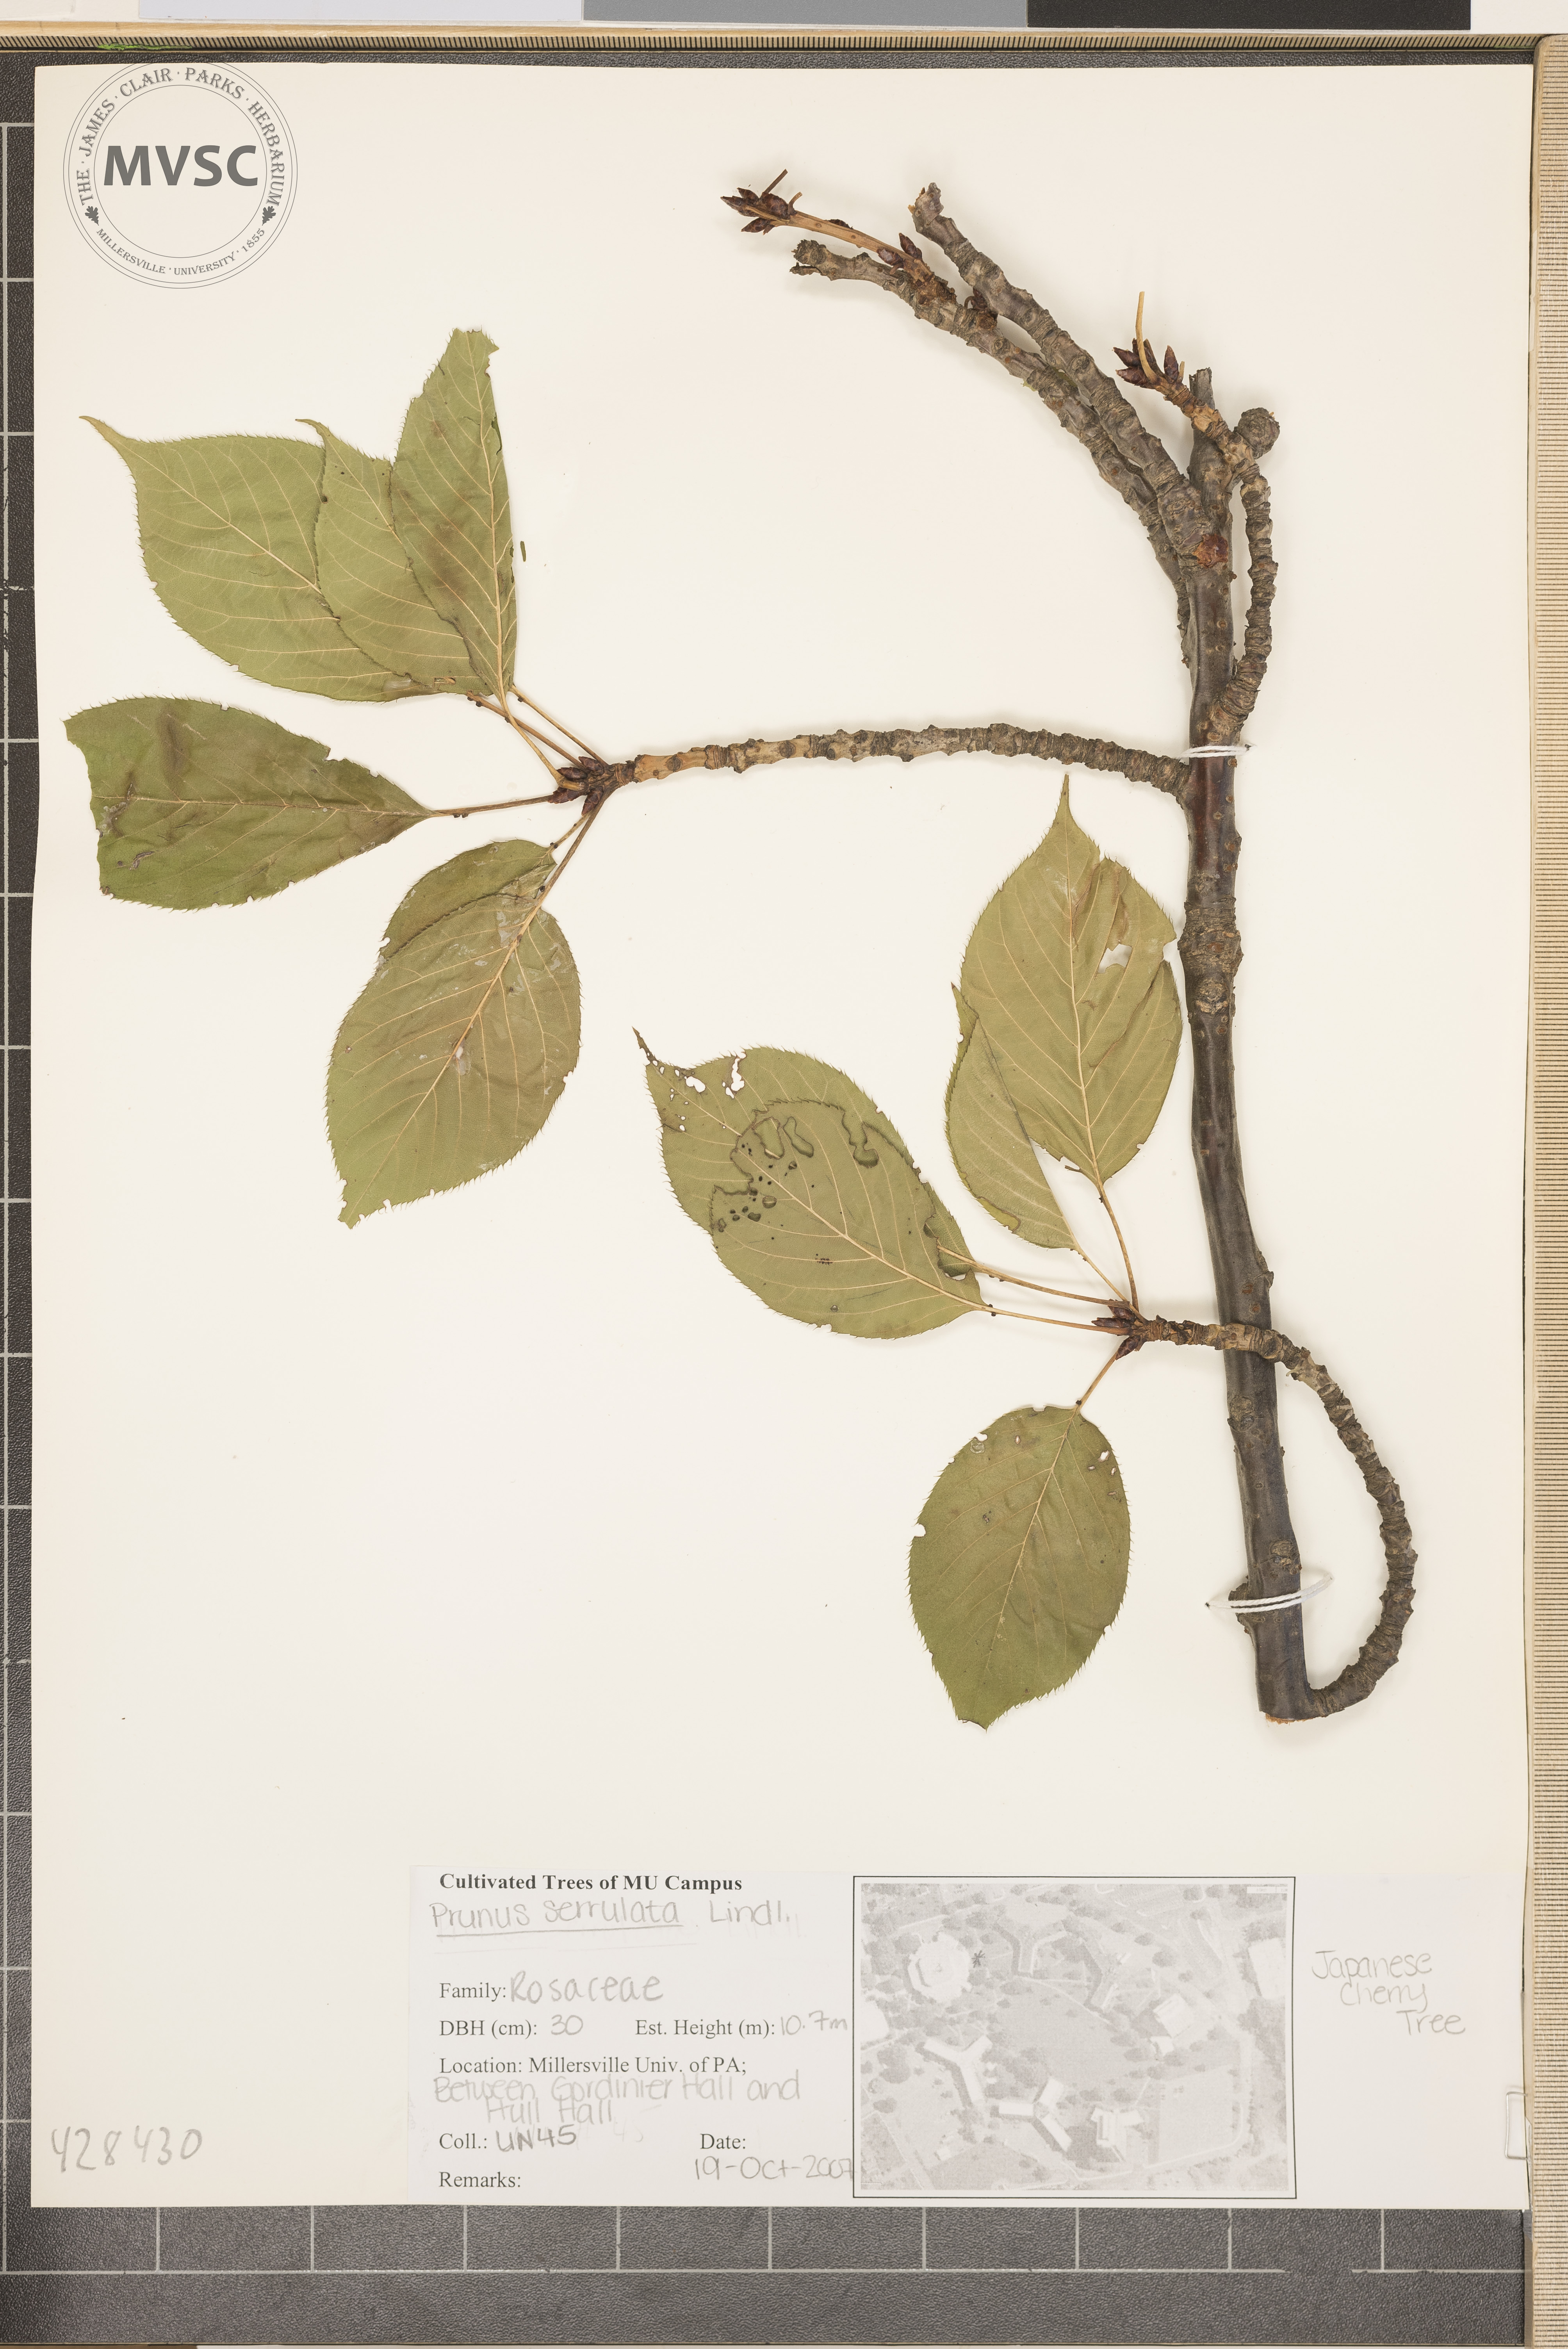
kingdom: Plantae
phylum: Tracheophyta
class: Magnoliopsida
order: Rosales
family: Rosaceae
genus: Prunus
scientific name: Prunus serrulata
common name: Oriental cherry
